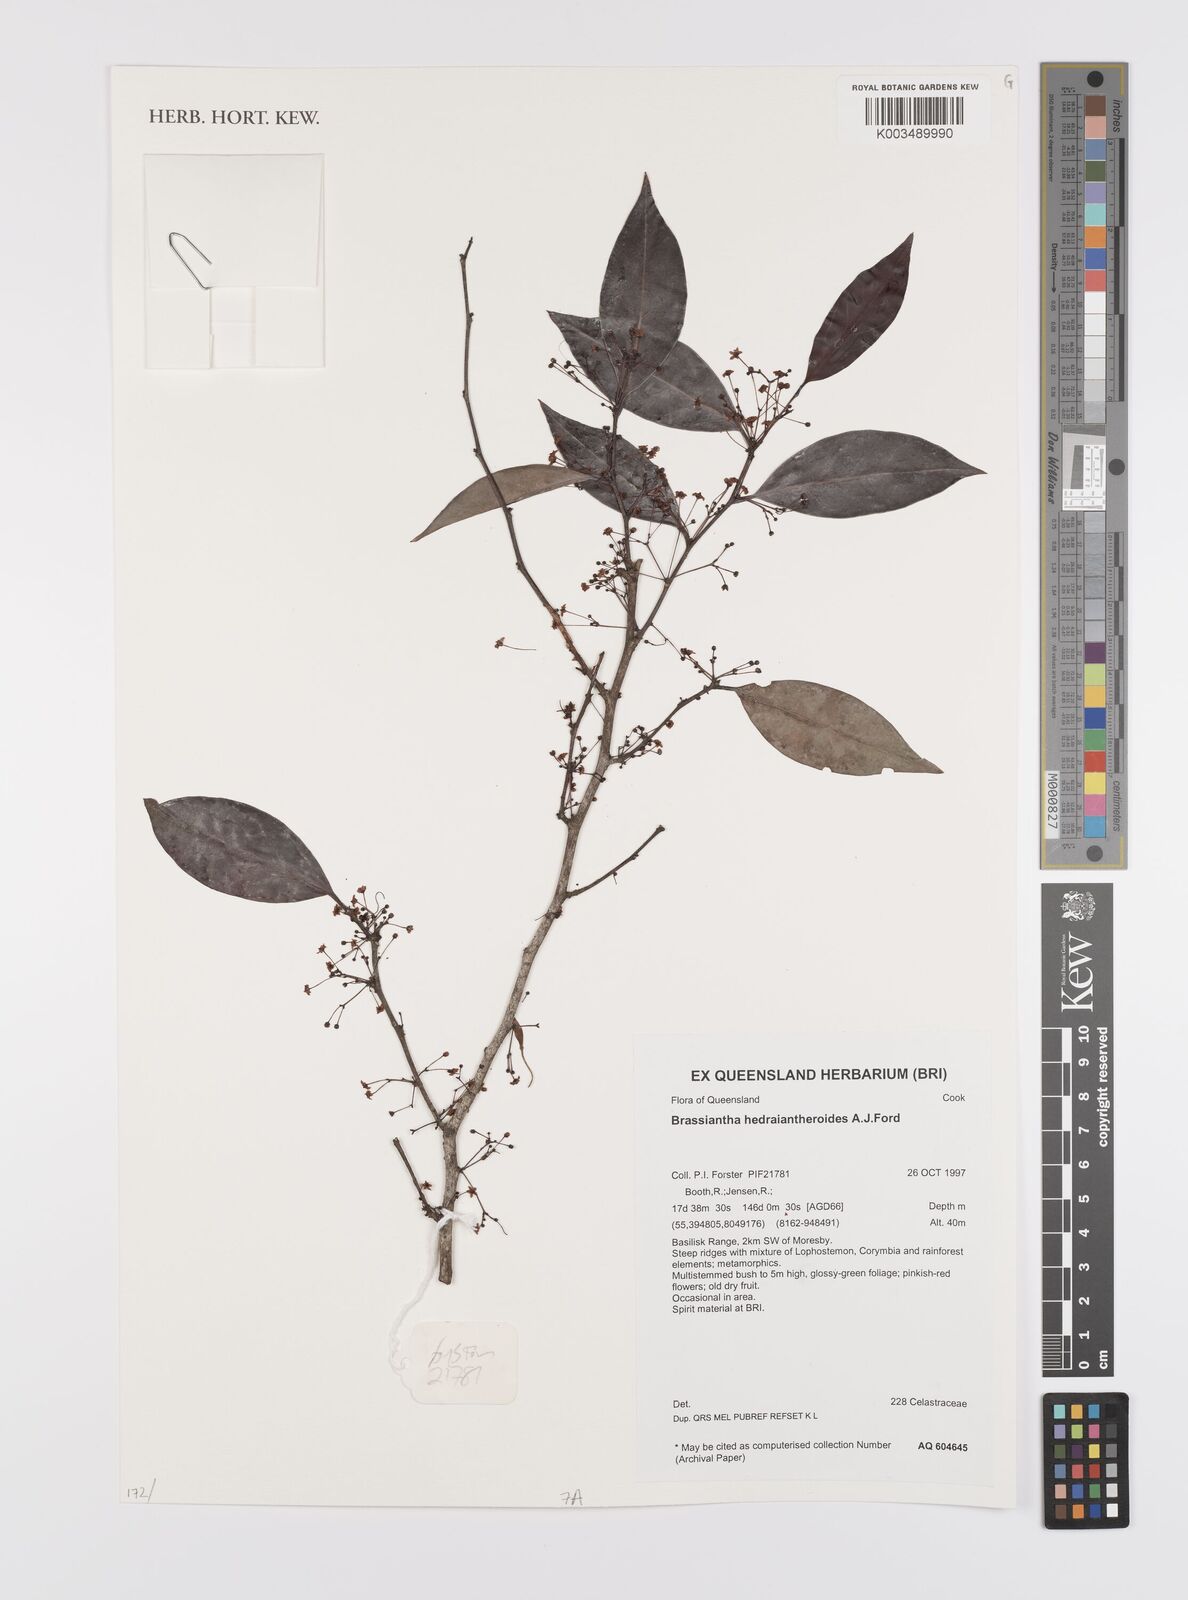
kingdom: Plantae
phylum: Tracheophyta
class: Magnoliopsida
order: Celastrales
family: Celastraceae
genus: Hedraianthera
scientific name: Hedraianthera porphyropetala
